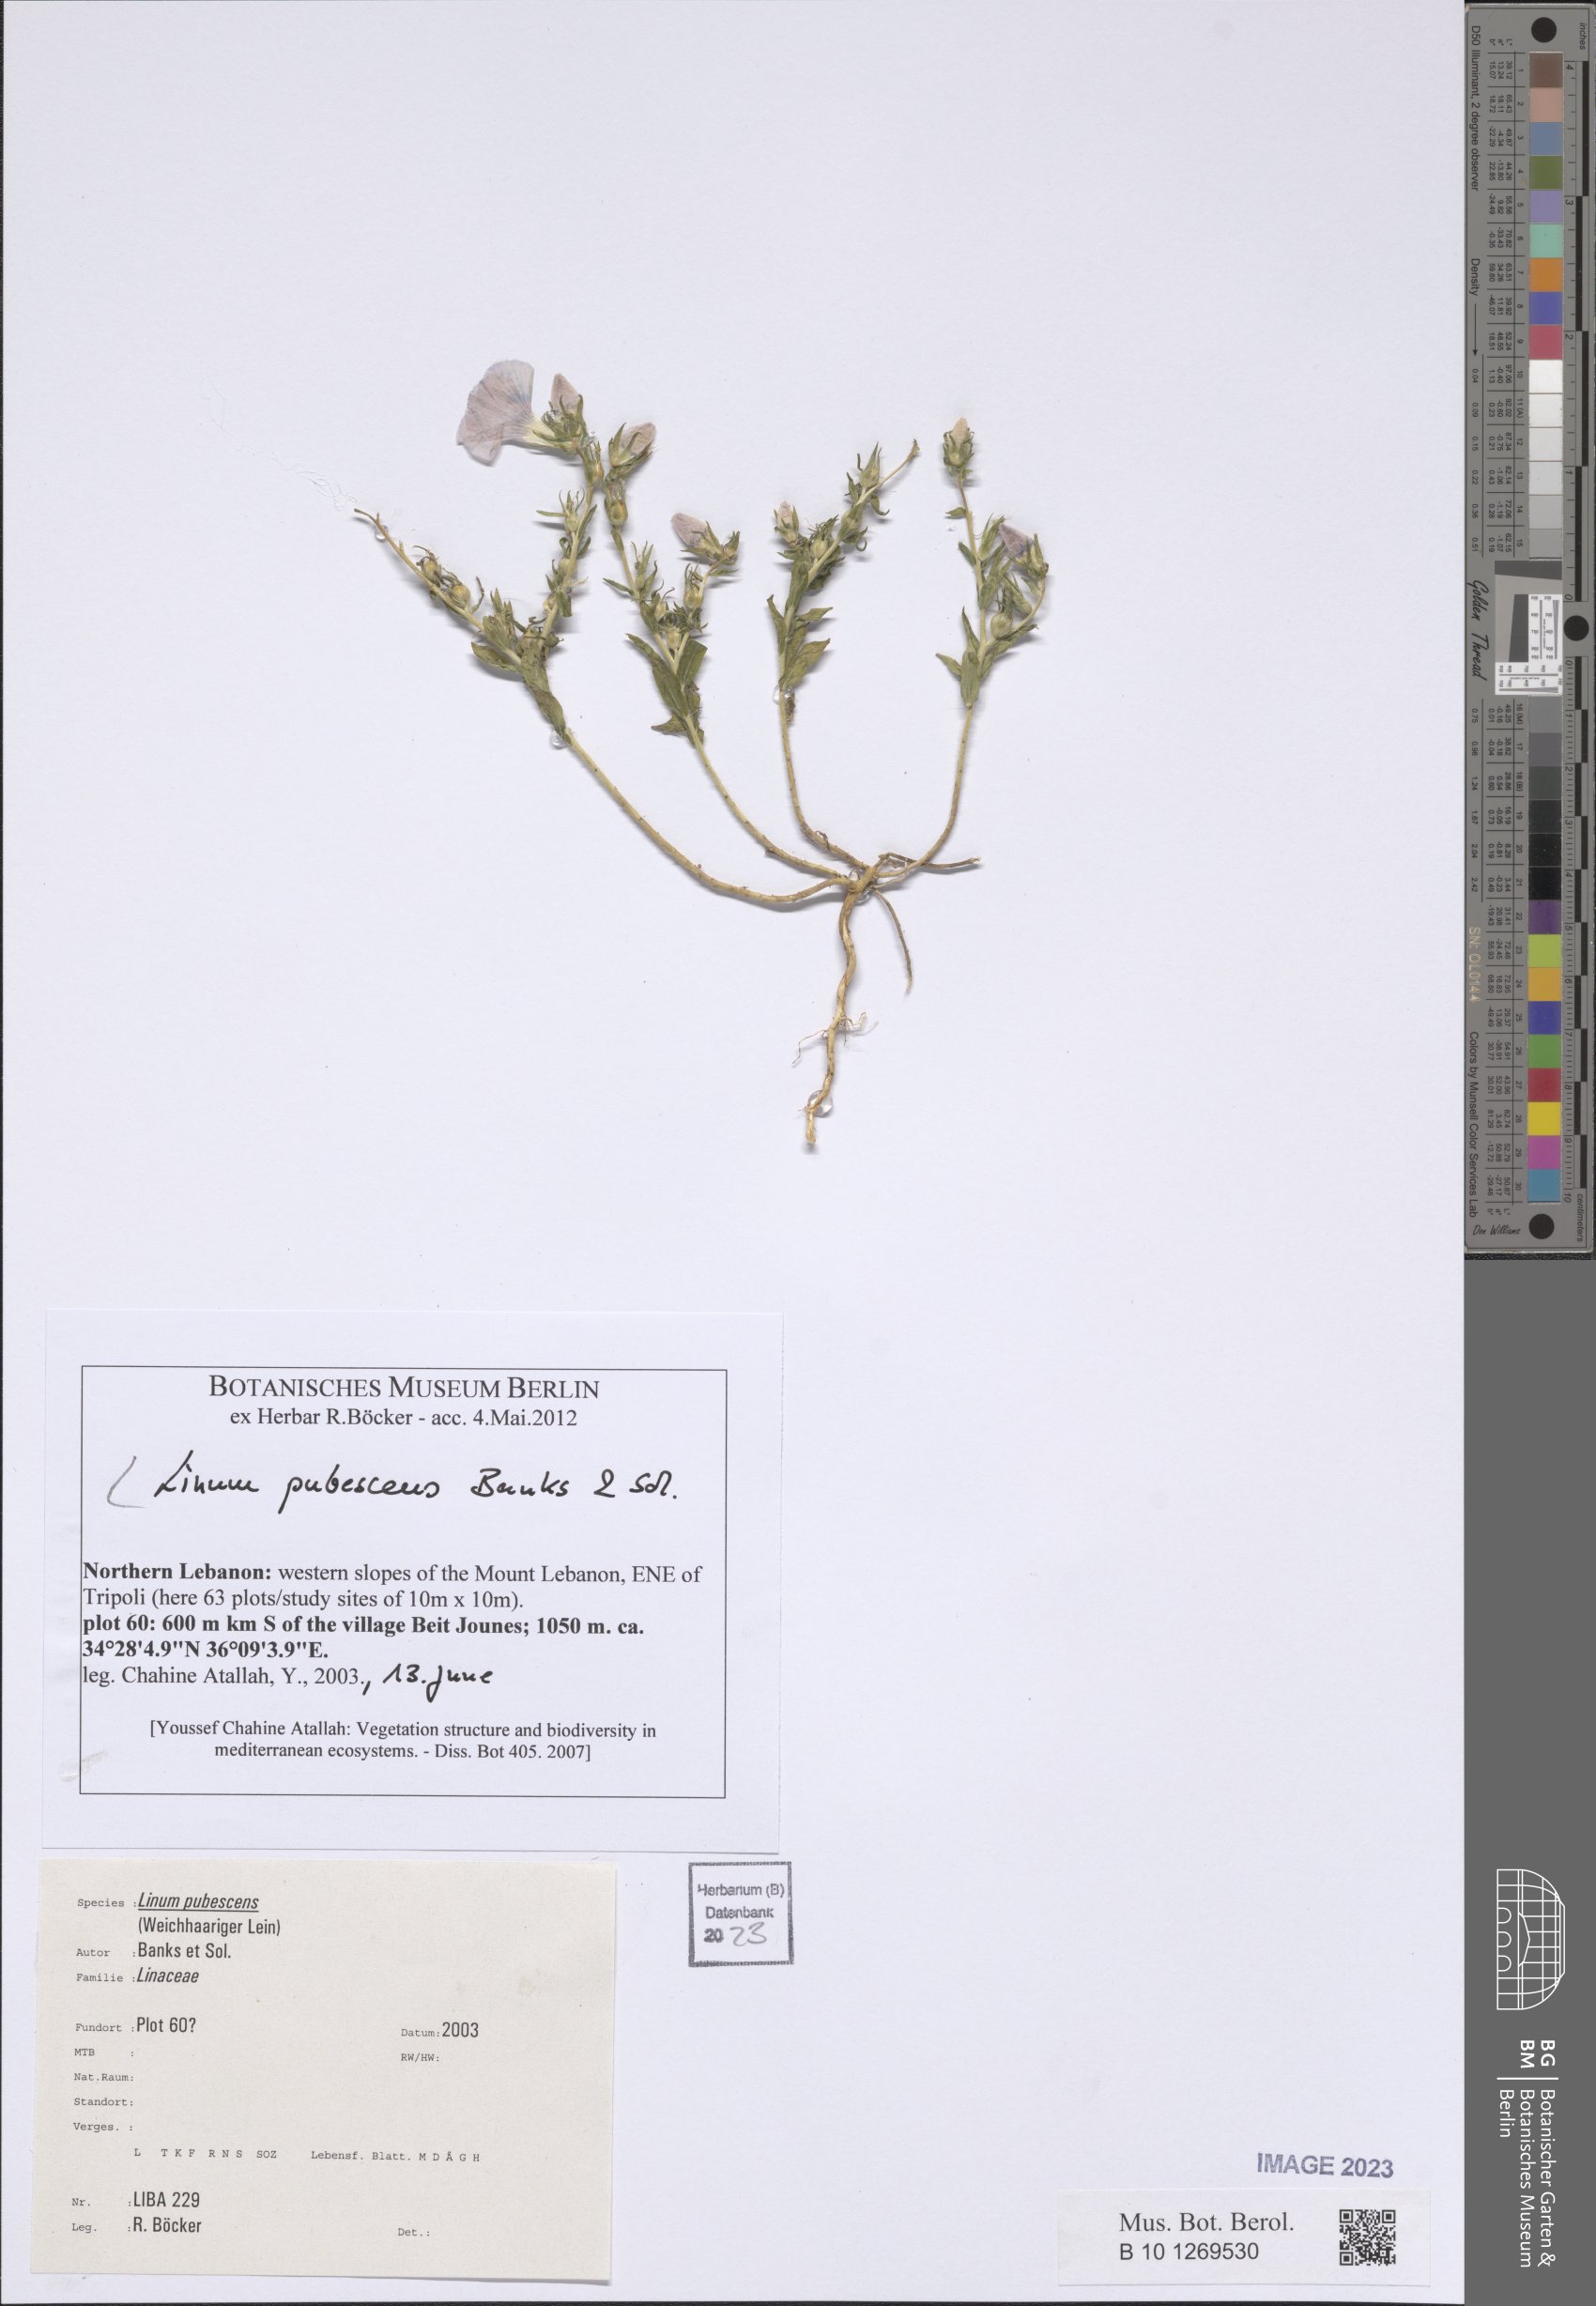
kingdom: Plantae
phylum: Tracheophyta
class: Magnoliopsida
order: Malpighiales
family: Linaceae
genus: Linum
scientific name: Linum pubescens
